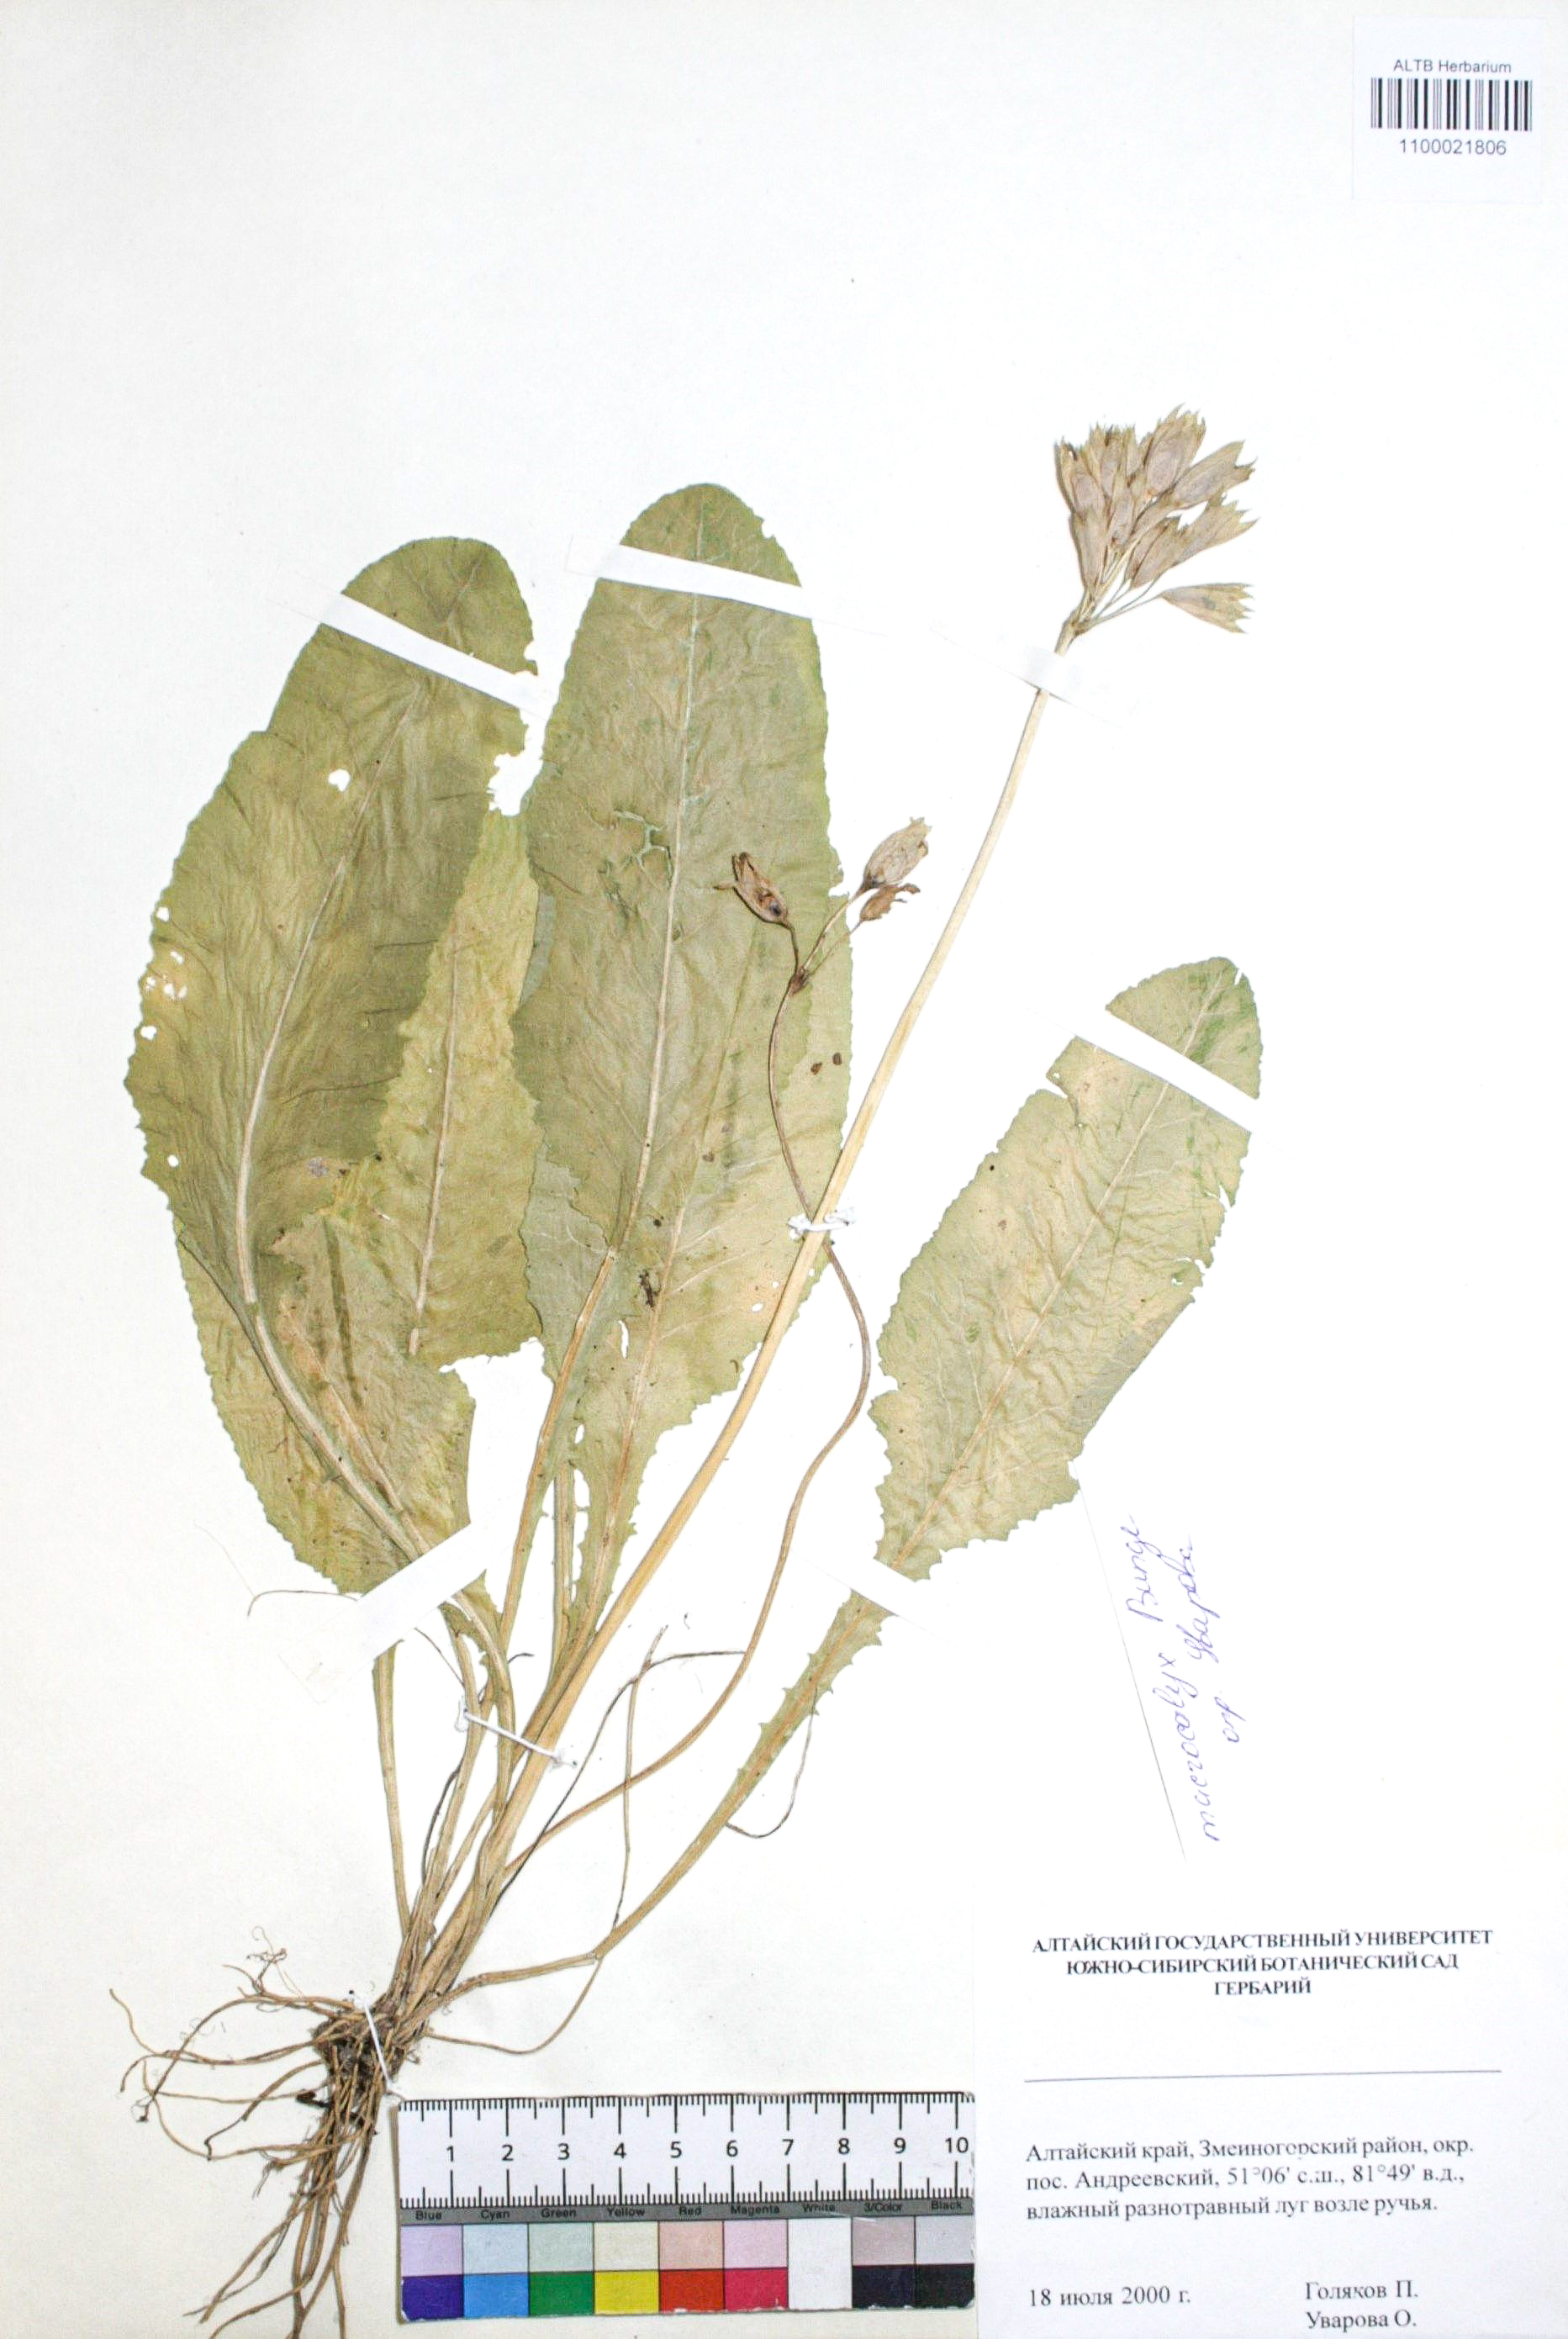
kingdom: Plantae
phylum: Tracheophyta
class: Magnoliopsida
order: Ericales
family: Primulaceae
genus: Primula
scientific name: Primula veris
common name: Cowslip
